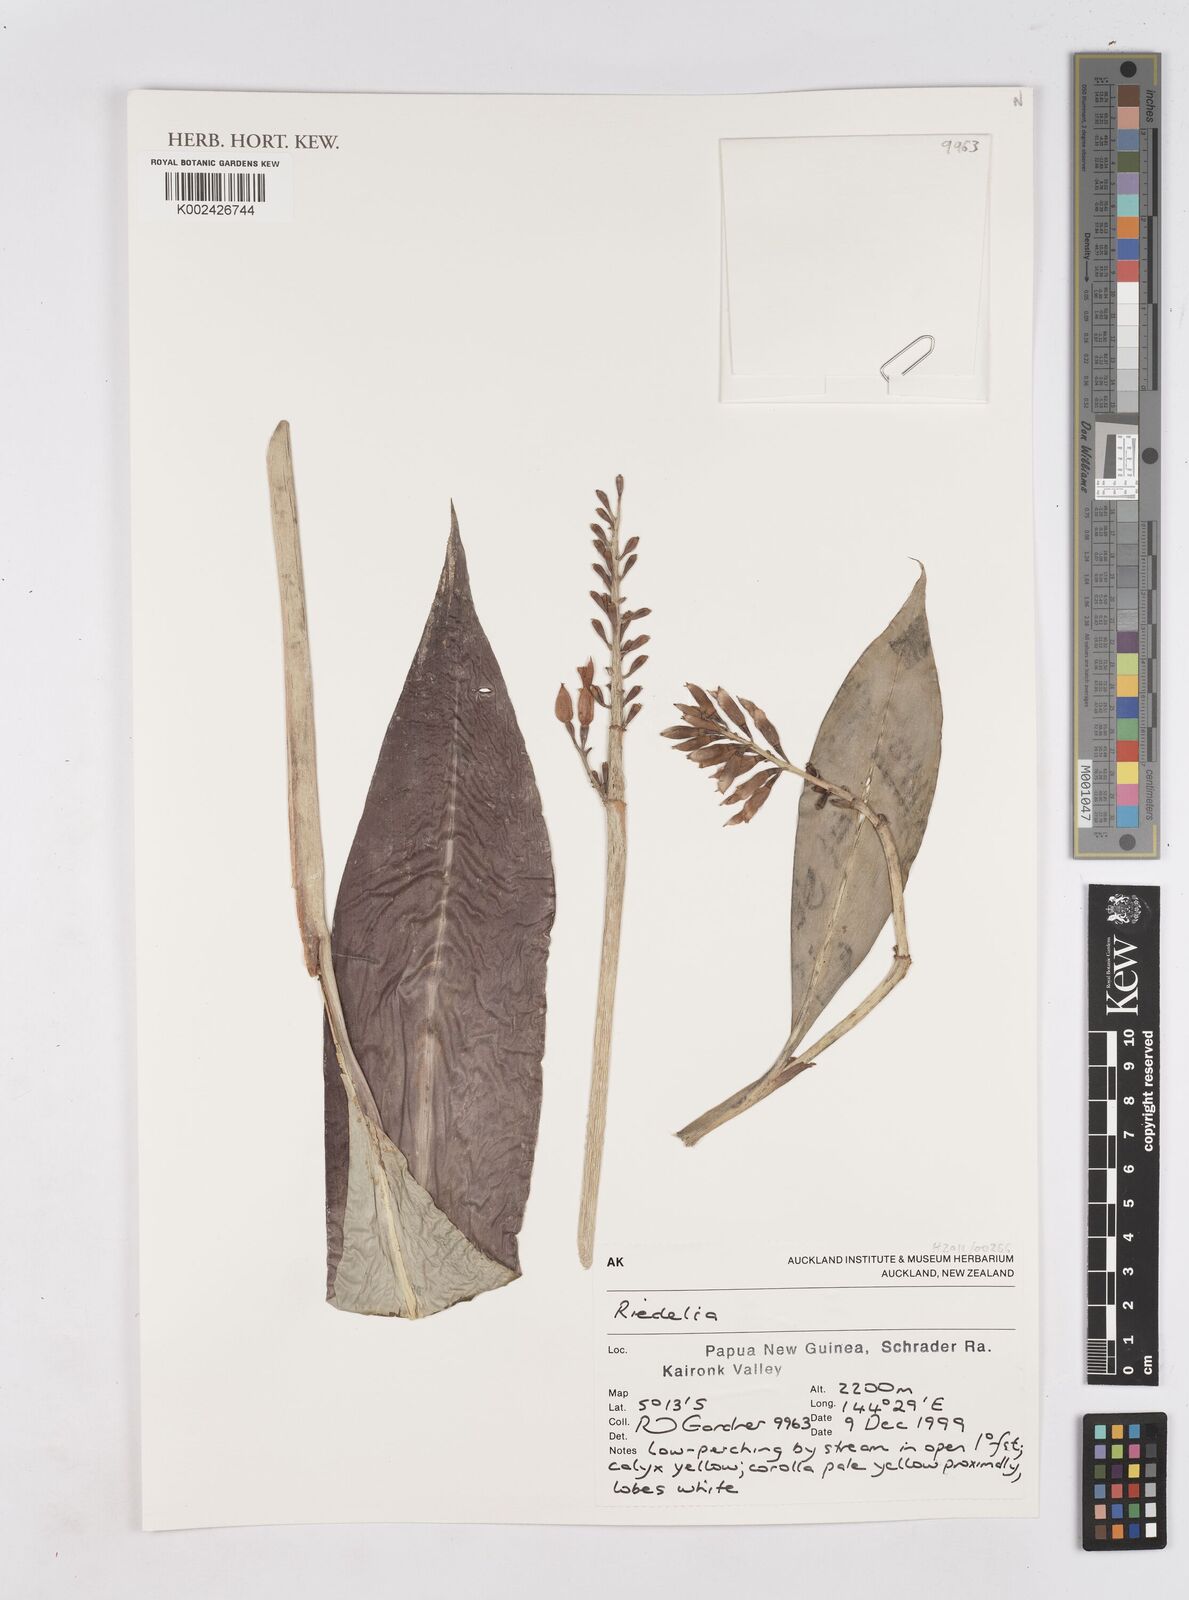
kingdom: Plantae
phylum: Tracheophyta
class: Liliopsida
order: Zingiberales
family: Zingiberaceae
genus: Riedelia
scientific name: Riedelia
